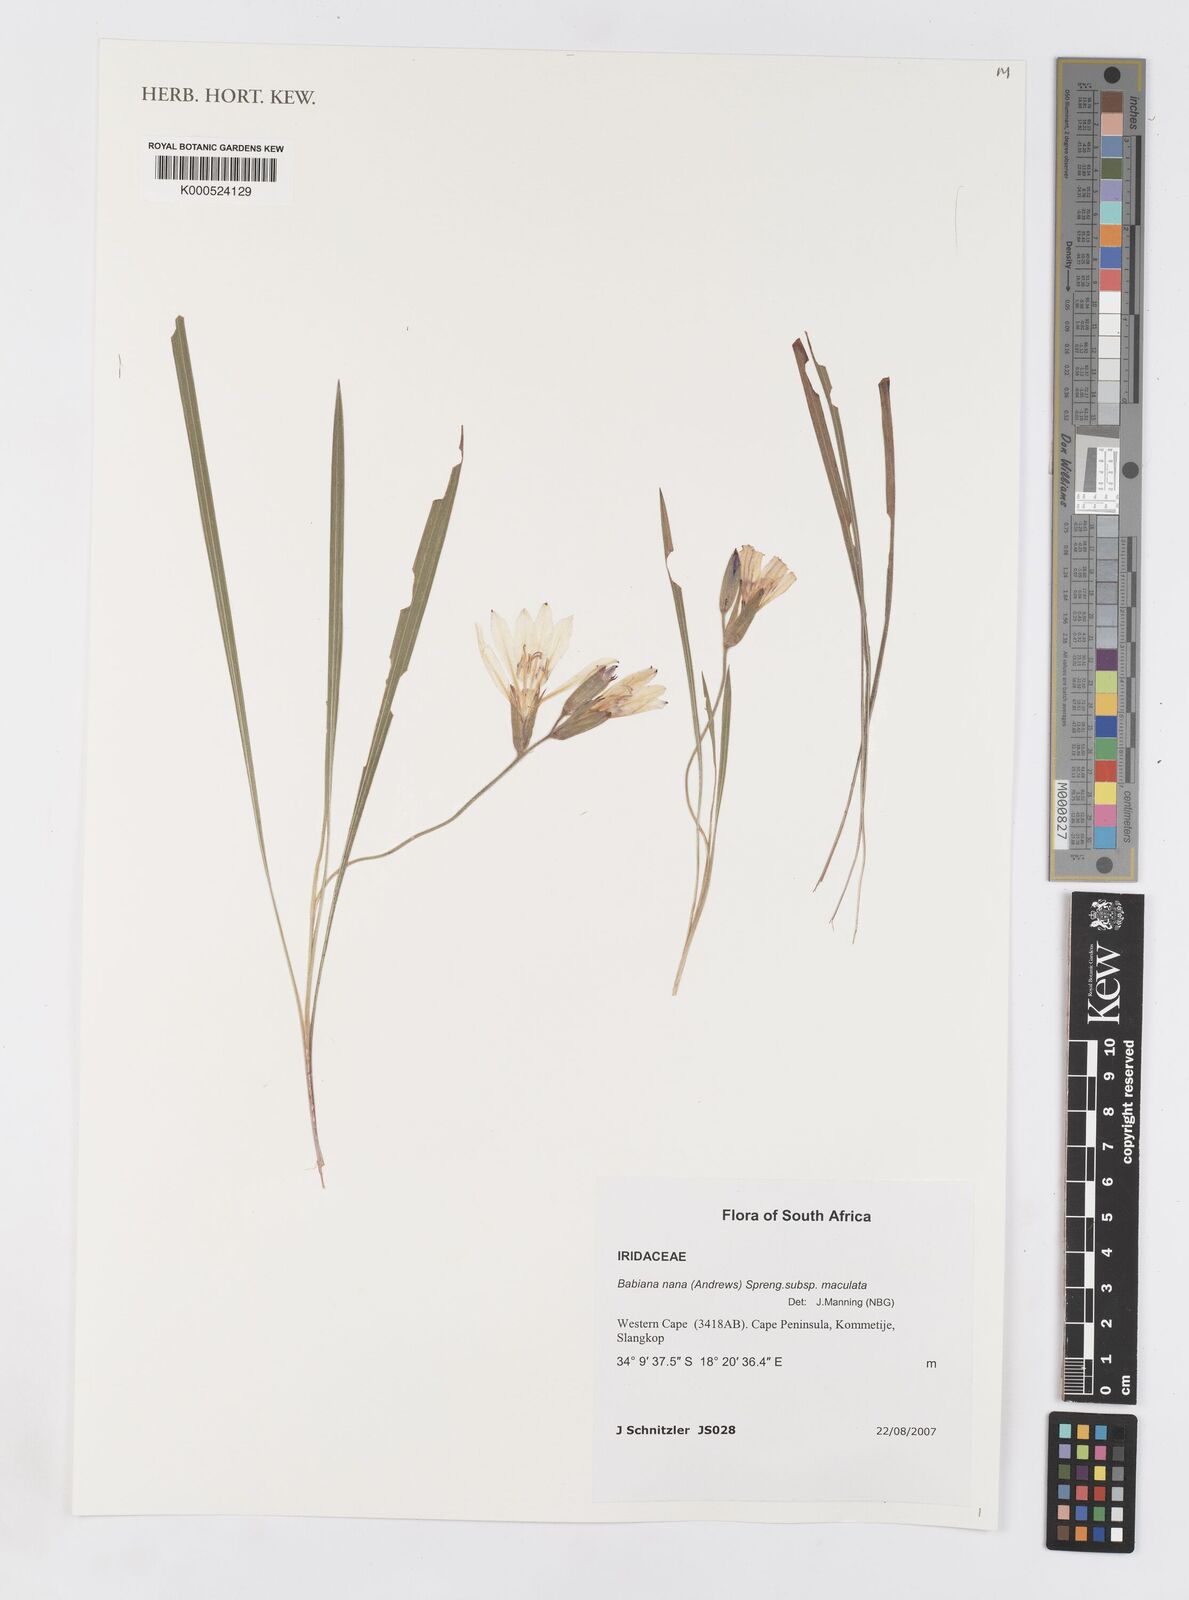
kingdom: Plantae
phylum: Tracheophyta
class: Liliopsida
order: Asparagales
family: Iridaceae
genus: Babiana
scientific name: Babiana nana
